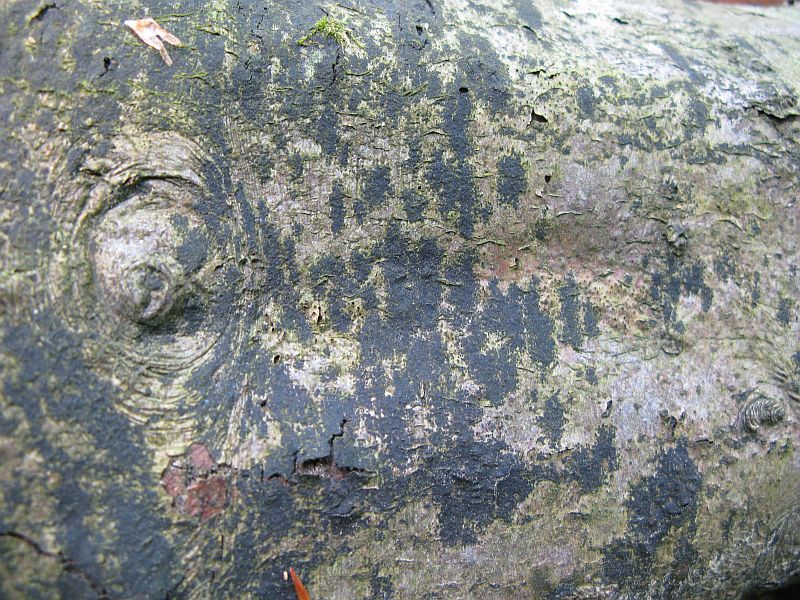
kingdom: Fungi
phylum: Ascomycota
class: Leotiomycetes
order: Rhytismatales
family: Ascodichaenaceae
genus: Ascodichaena
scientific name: Ascodichaena rugosa
